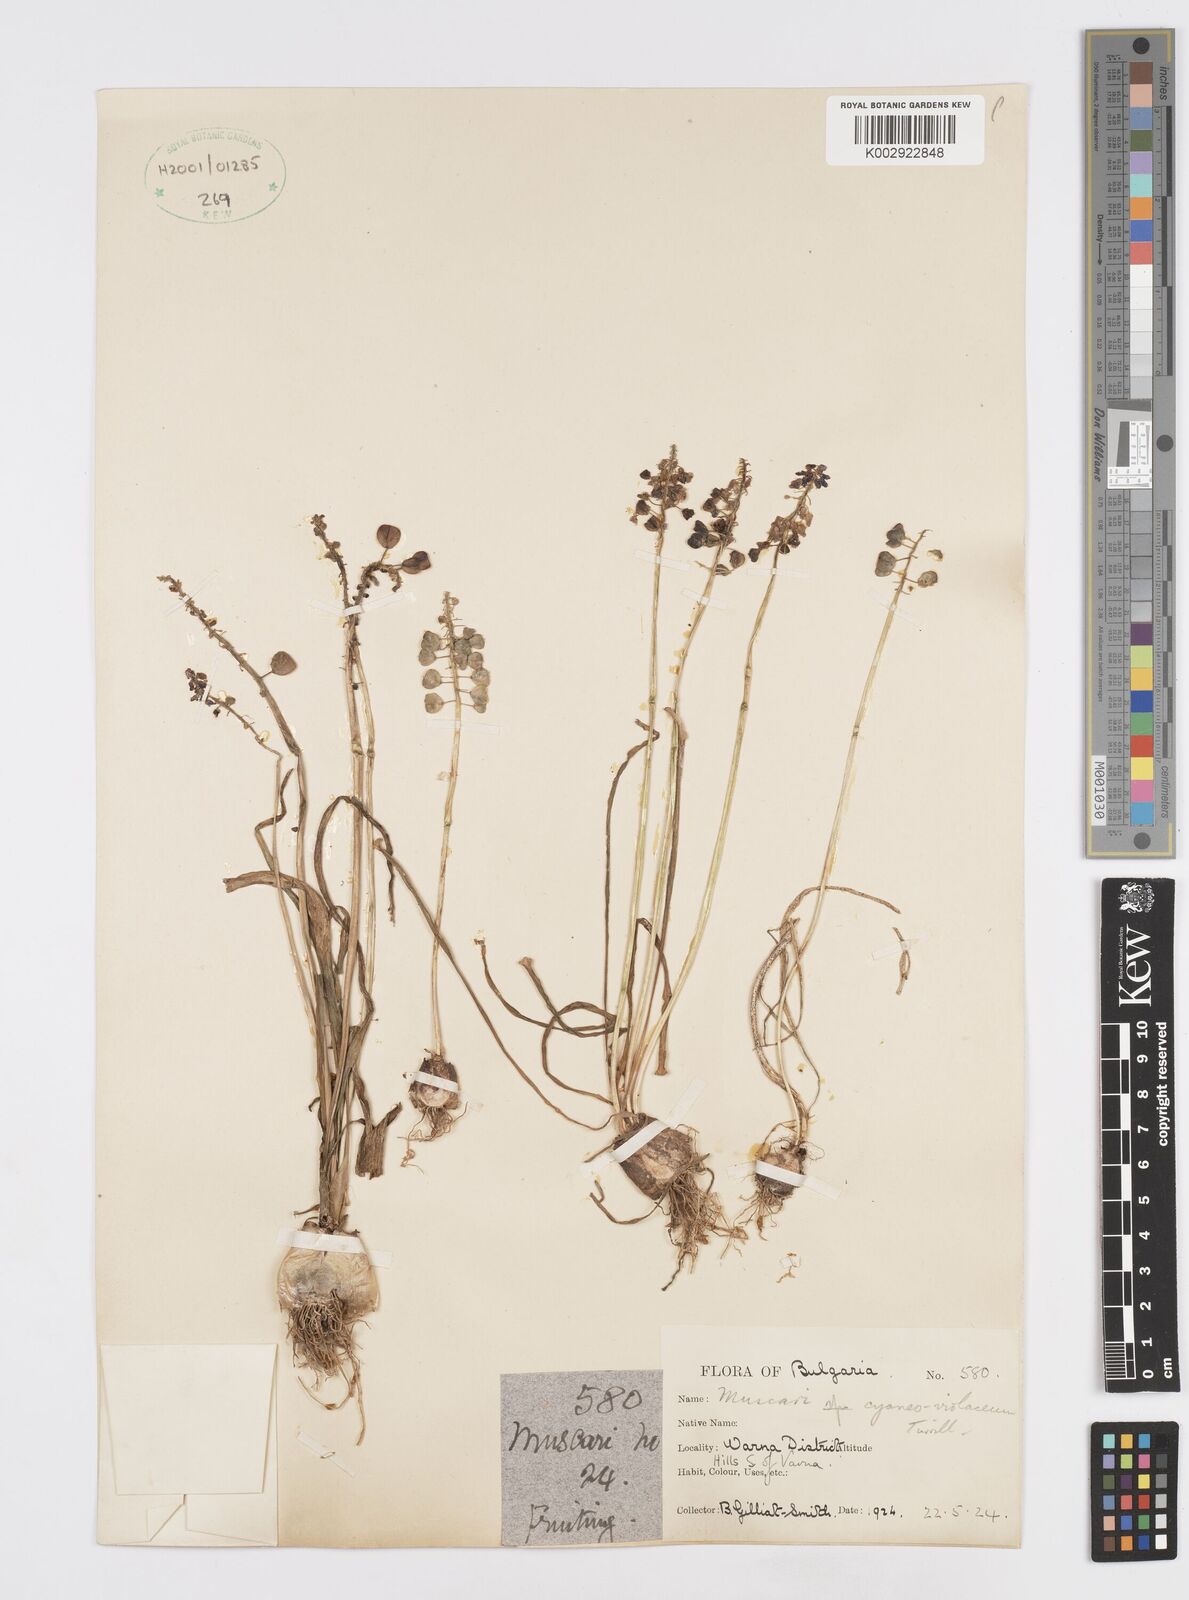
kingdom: Plantae
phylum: Tracheophyta
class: Liliopsida
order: Asparagales
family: Asparagaceae
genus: Muscari
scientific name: Muscari armeniacum
